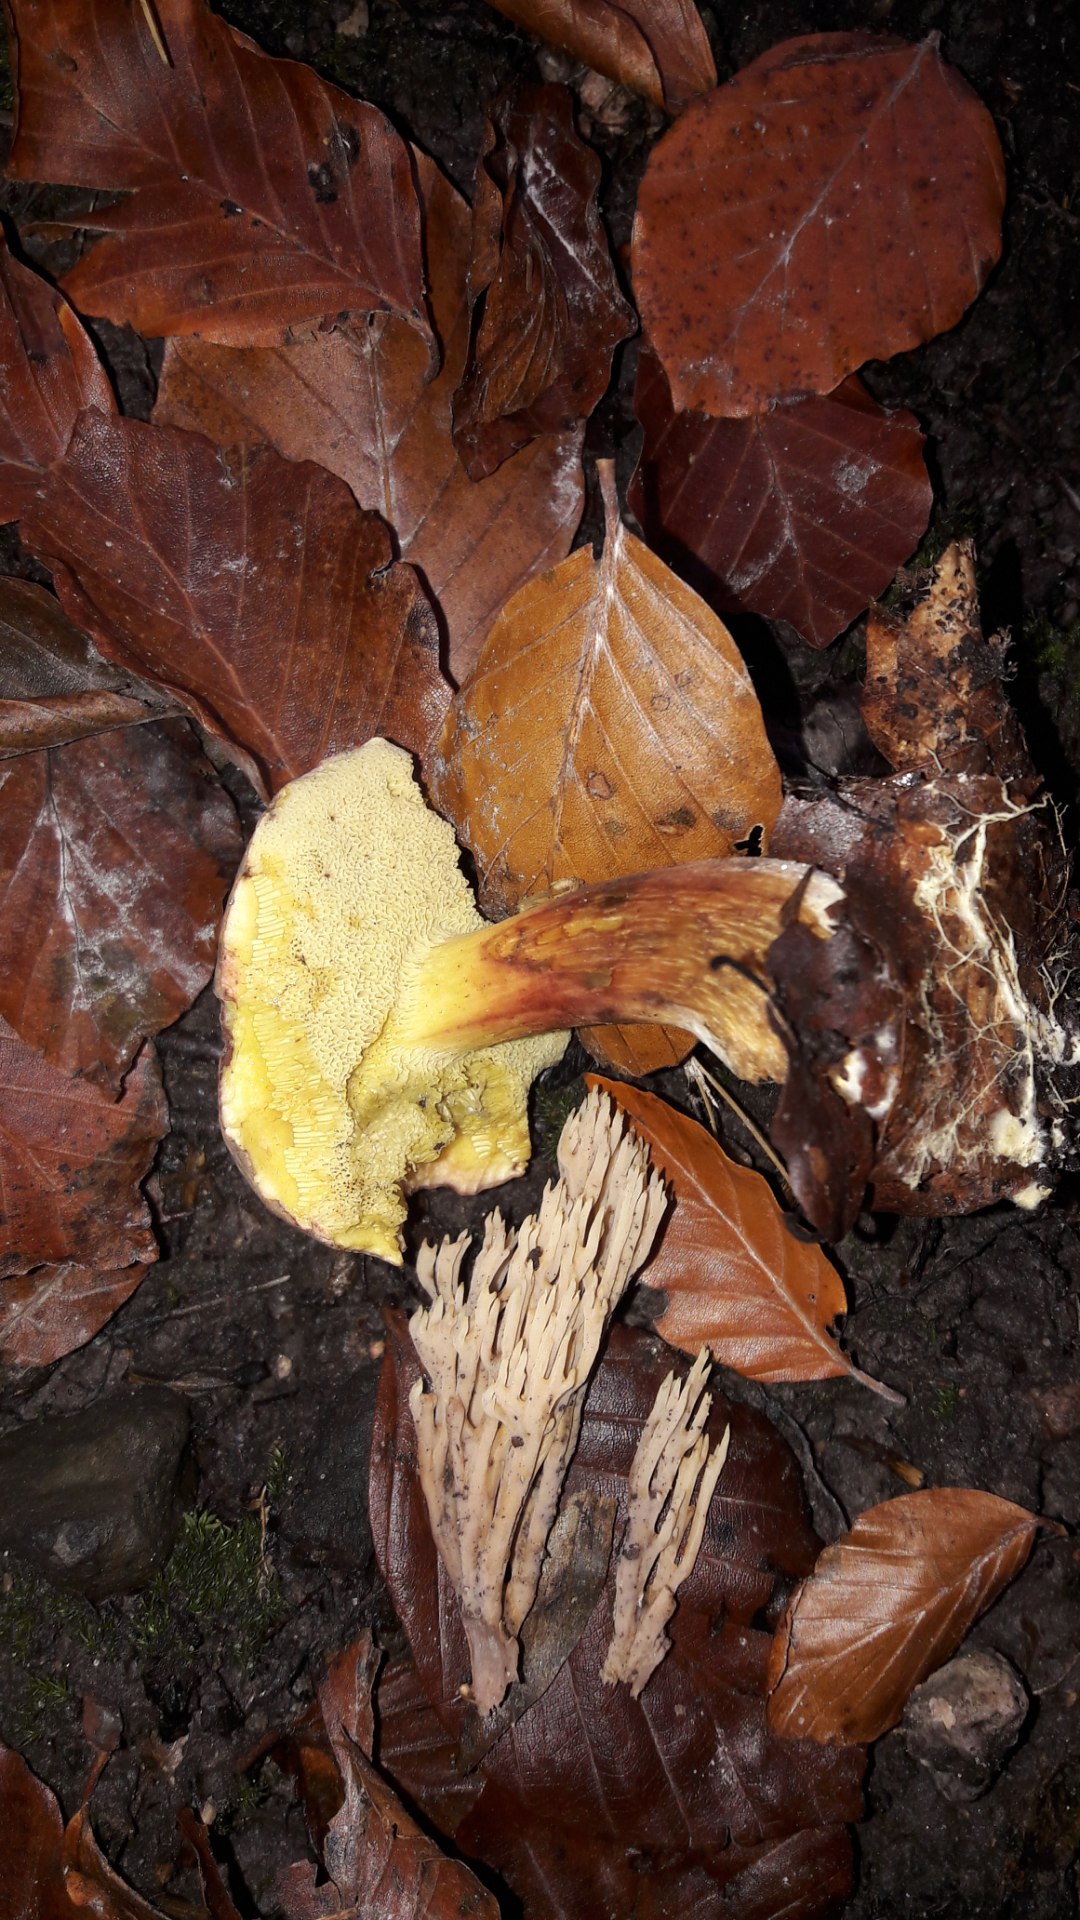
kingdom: Fungi
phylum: Basidiomycota
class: Agaricomycetes
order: Boletales
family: Boletaceae
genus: Xerocomellus
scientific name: Xerocomellus
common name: dværgrørhat
